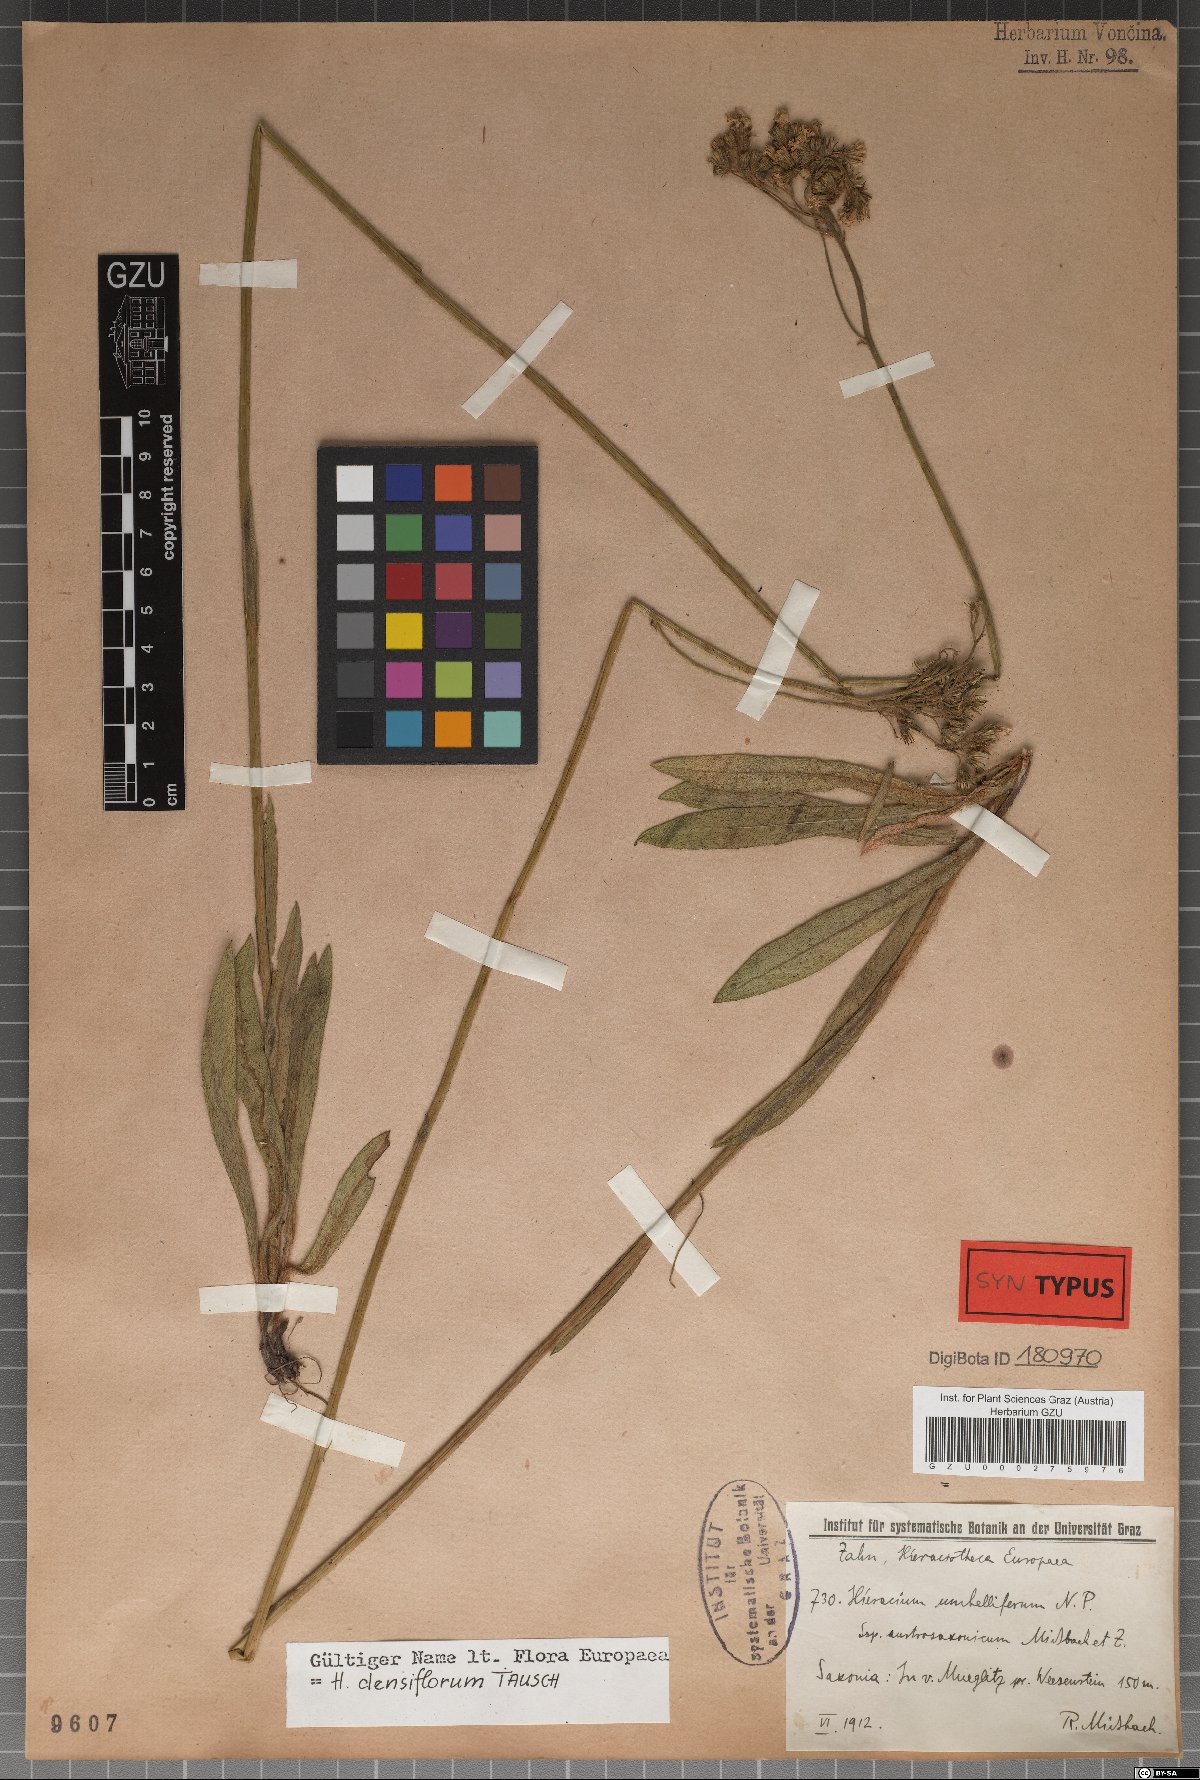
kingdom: Plantae
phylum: Tracheophyta
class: Magnoliopsida
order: Asterales
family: Asteraceae
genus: Pilosella
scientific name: Pilosella densiflora
